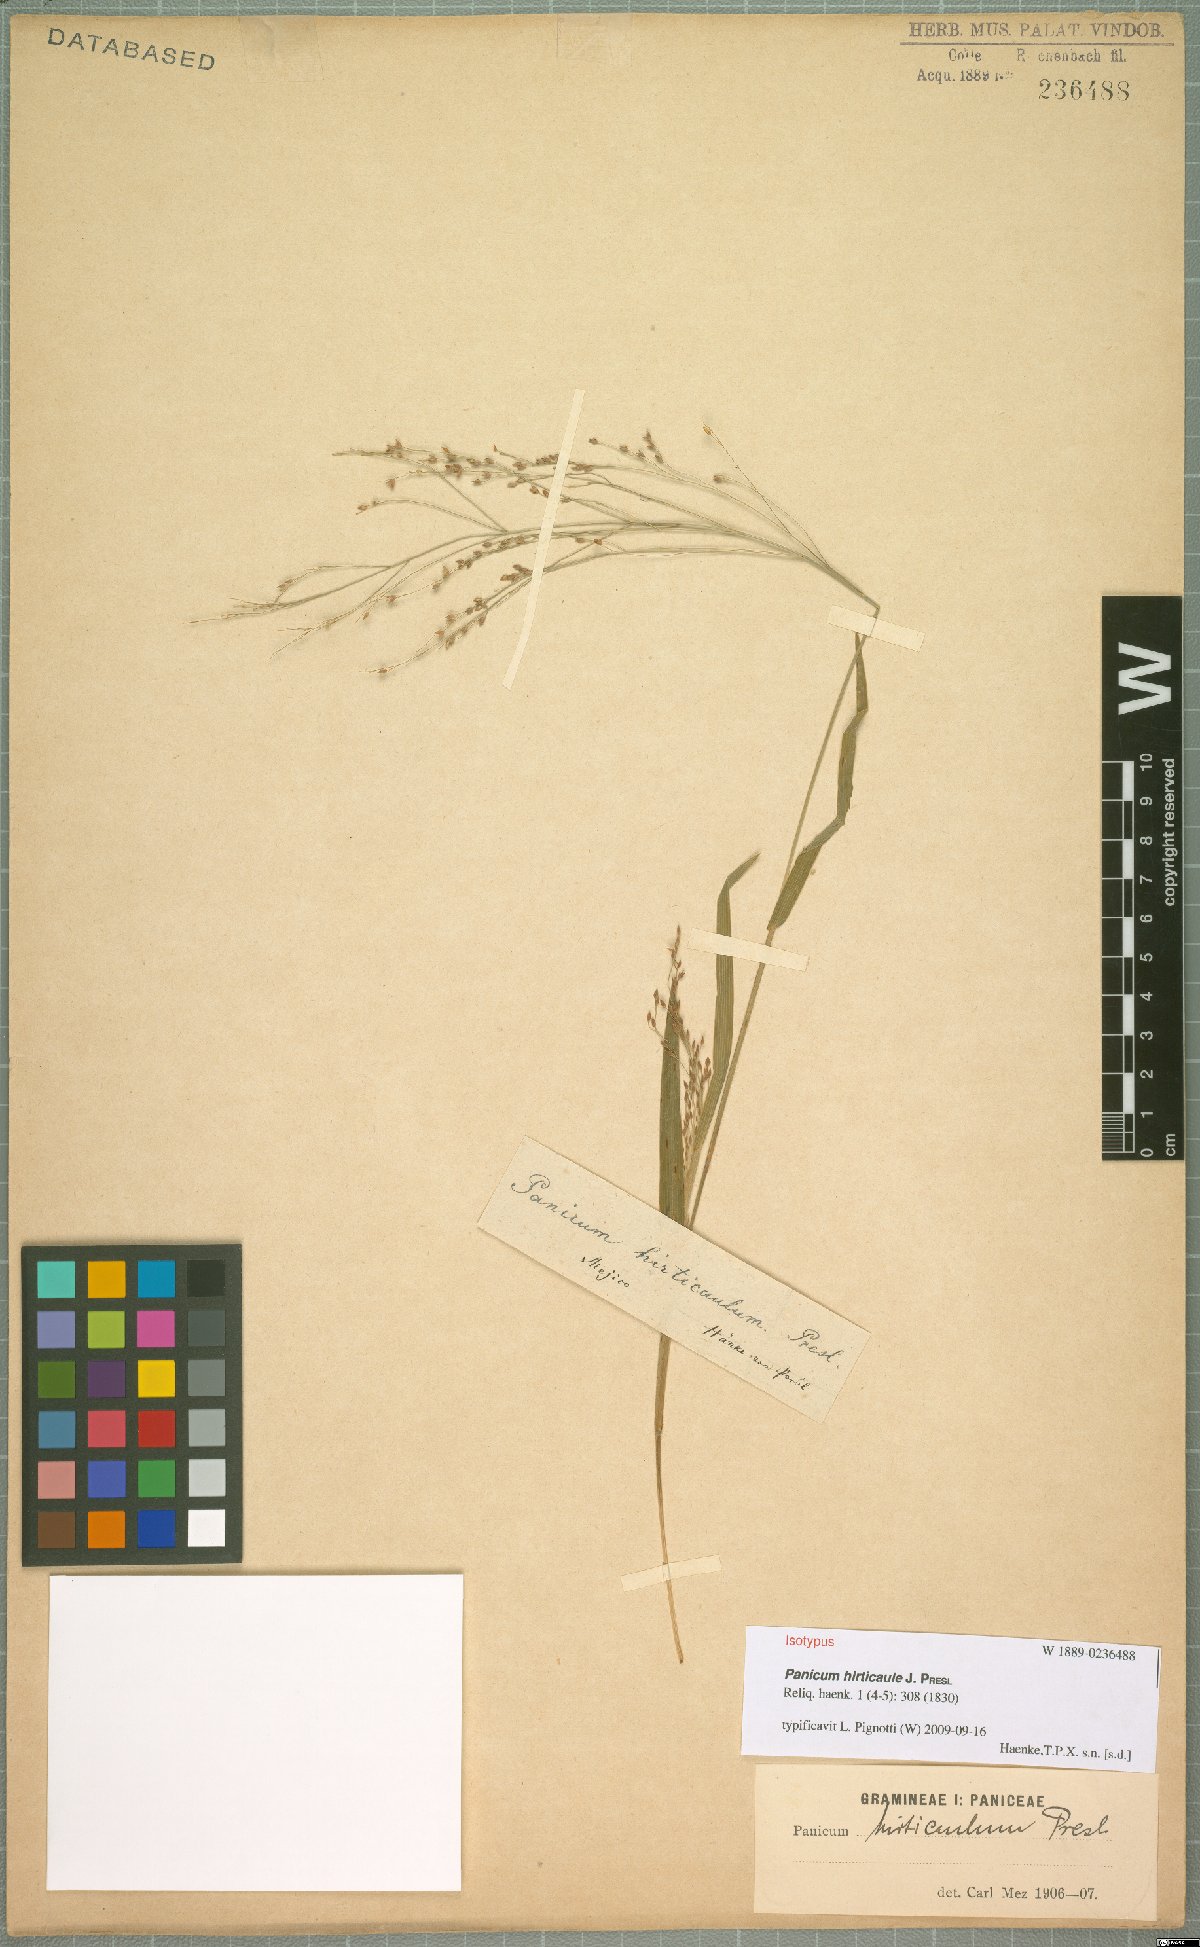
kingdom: Plantae
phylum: Tracheophyta
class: Liliopsida
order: Poales
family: Poaceae
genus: Panicum
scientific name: Panicum hirticaule
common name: Rough-stalk witchgrass
